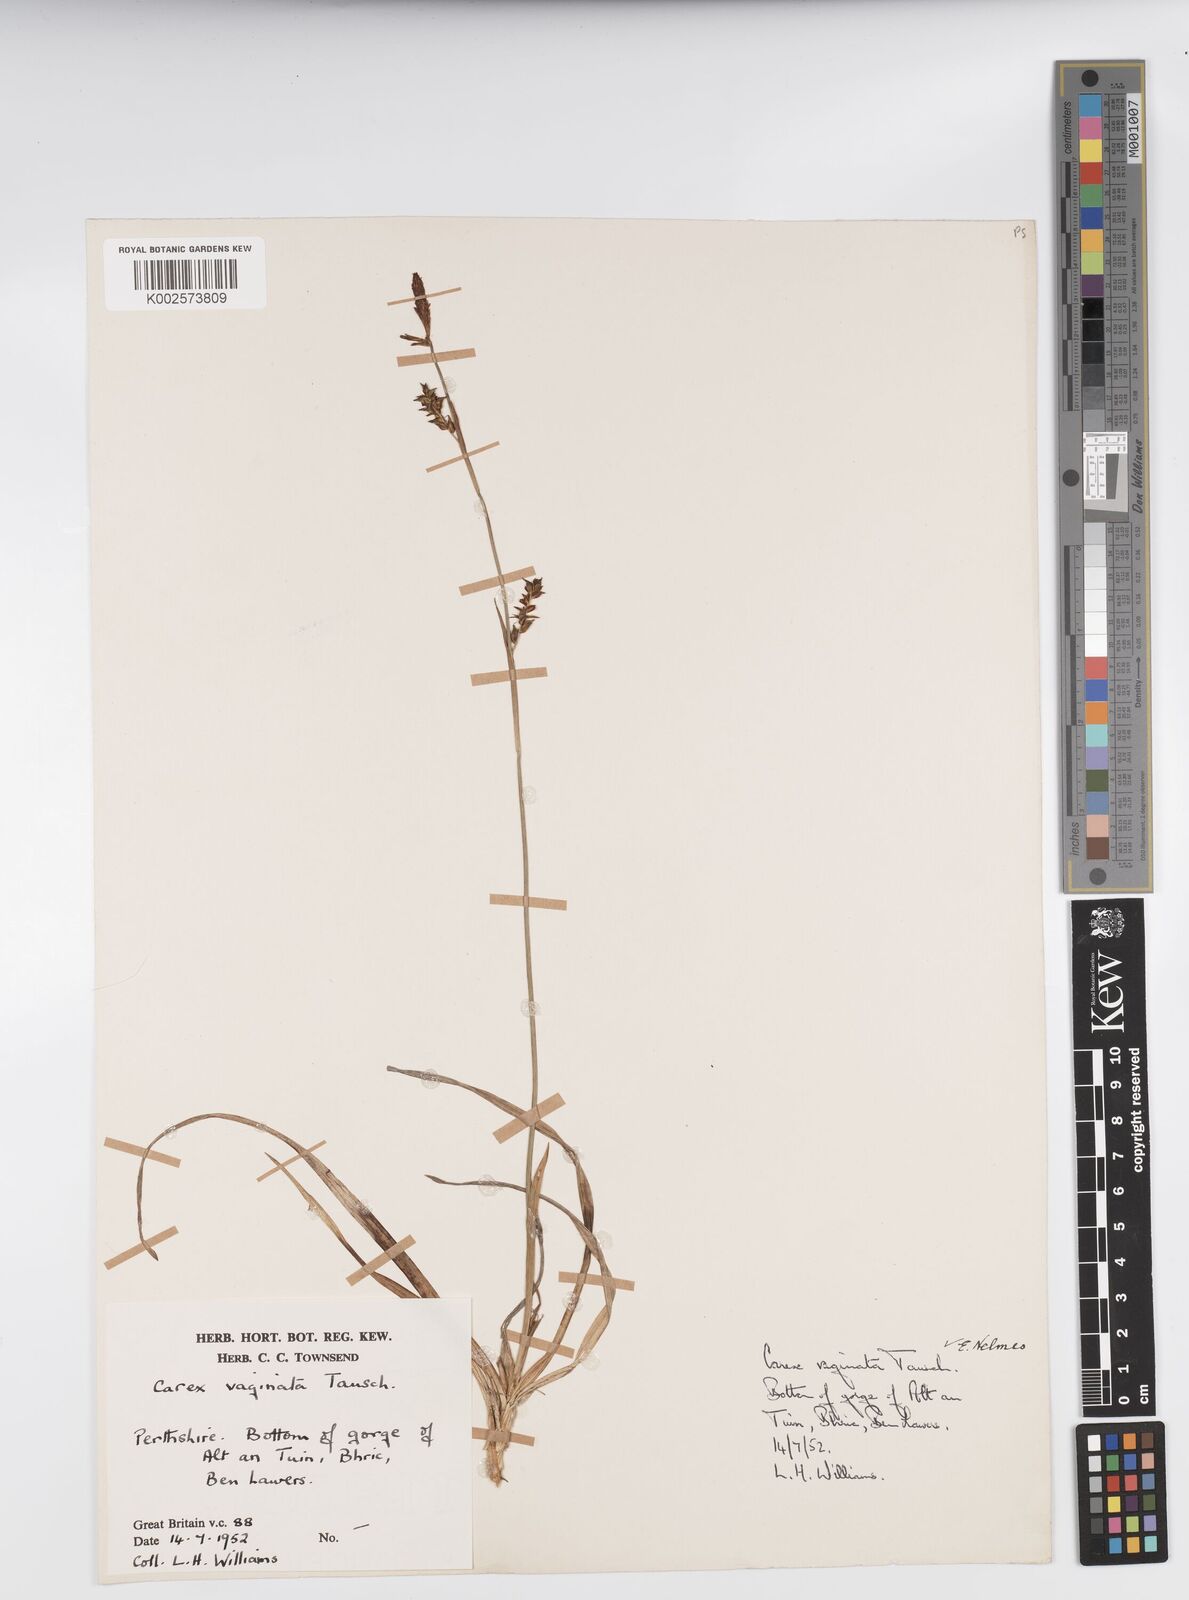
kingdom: Plantae
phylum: Tracheophyta
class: Liliopsida
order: Poales
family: Cyperaceae
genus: Carex
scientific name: Carex vaginata
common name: Sheathed sedge
